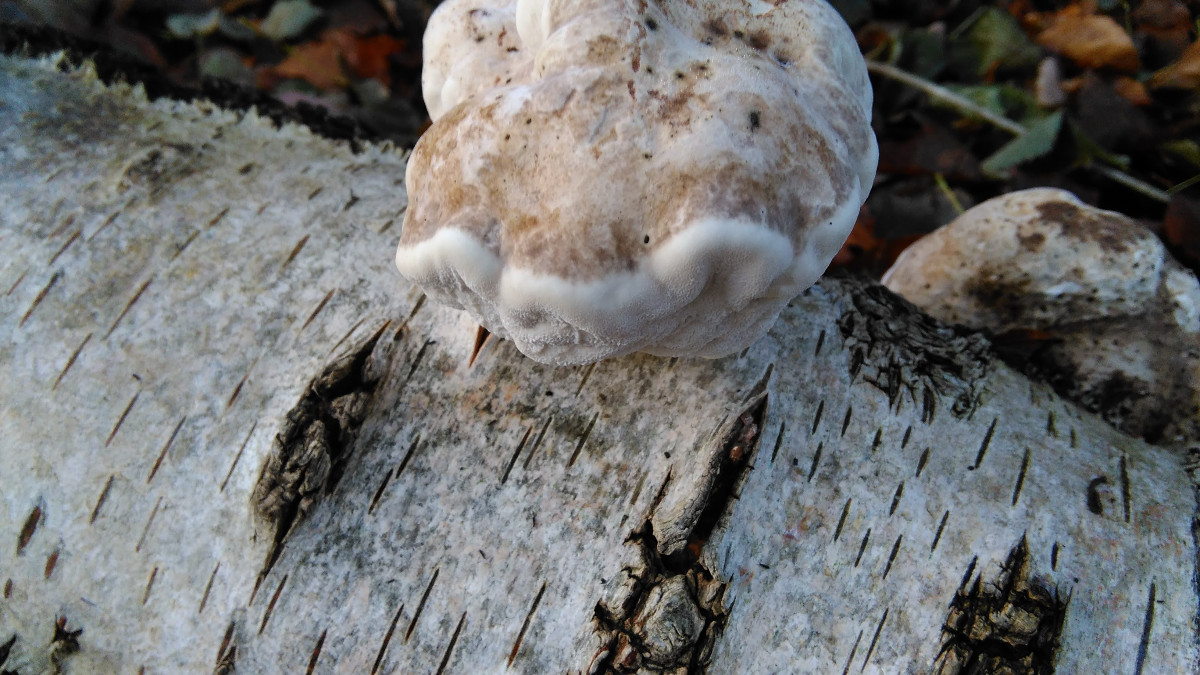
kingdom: Fungi
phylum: Basidiomycota
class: Agaricomycetes
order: Polyporales
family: Fomitopsidaceae
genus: Fomitopsis
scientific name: Fomitopsis betulina
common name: birkeporesvamp
